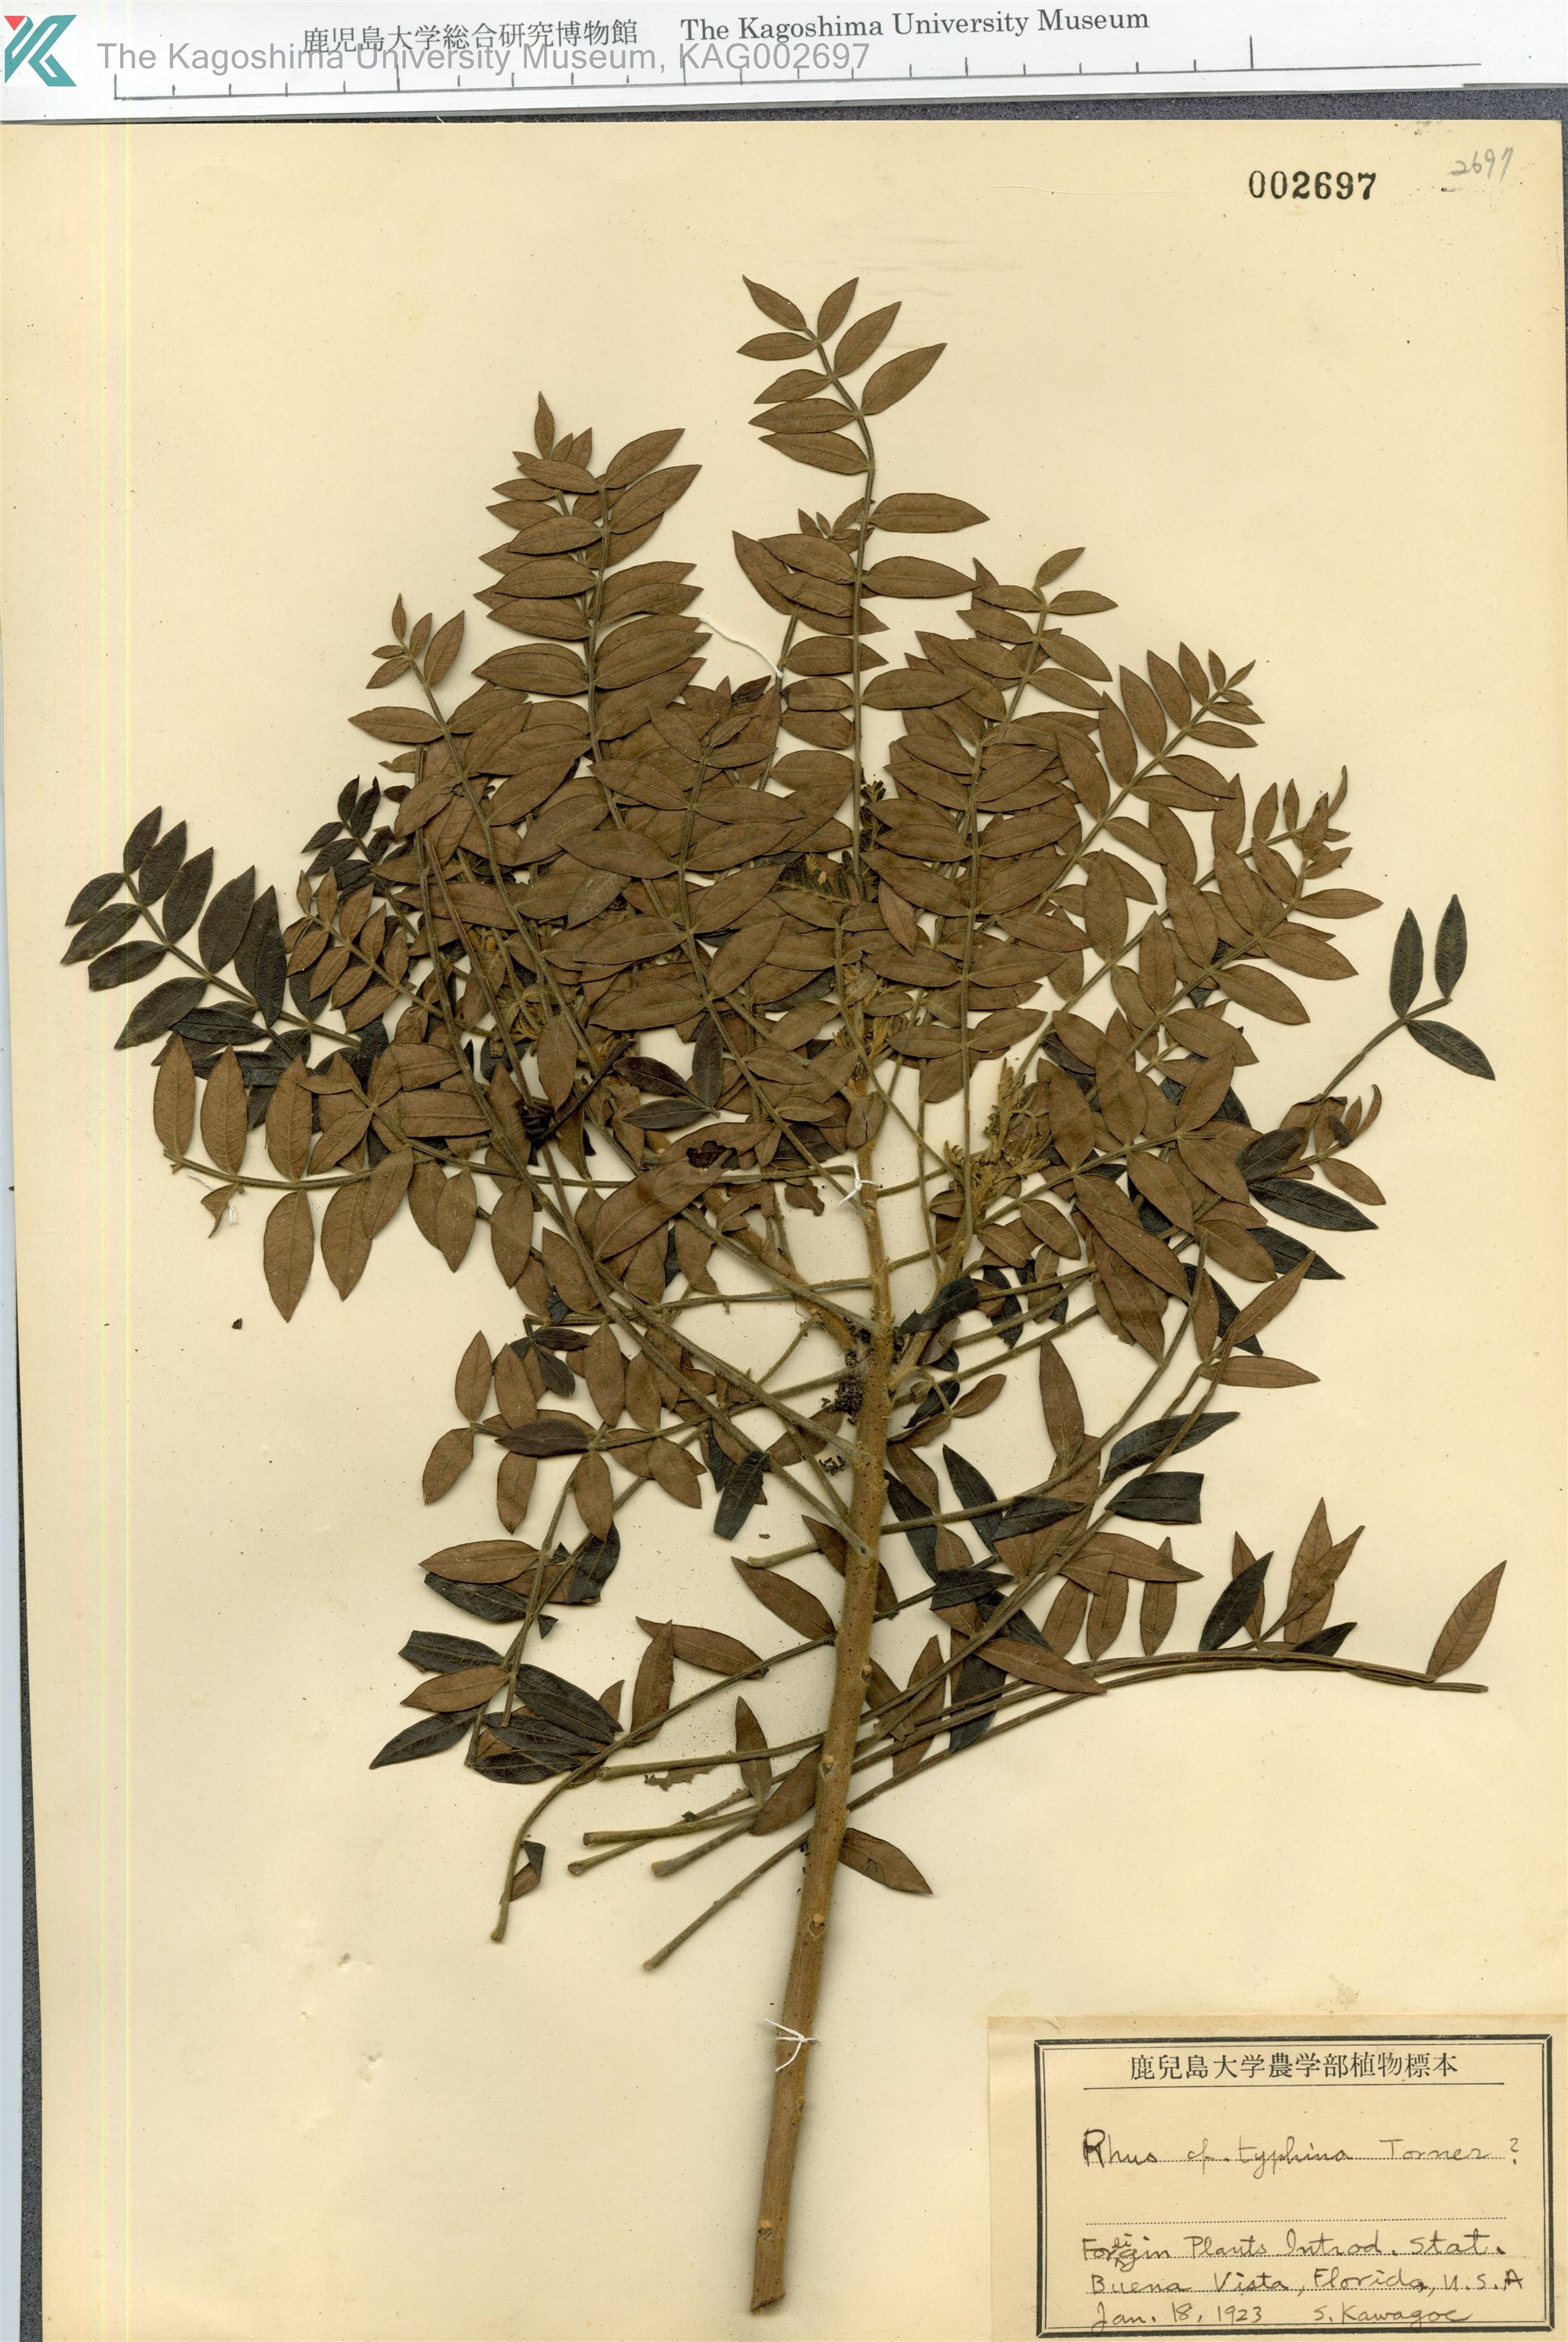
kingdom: Plantae
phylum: Tracheophyta
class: Magnoliopsida
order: Sapindales
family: Anacardiaceae
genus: Rhus
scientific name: Rhus typhina
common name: Staghorn sumac
